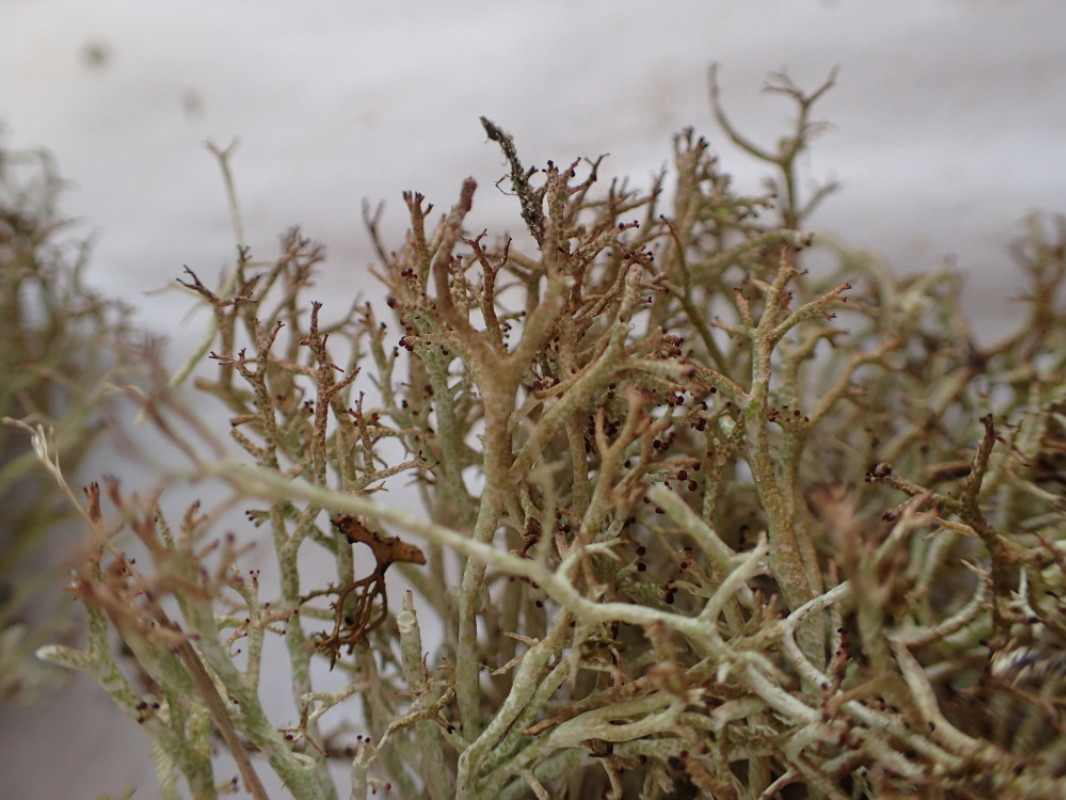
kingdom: Fungi
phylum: Ascomycota
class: Lecanoromycetes
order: Lecanorales
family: Cladoniaceae
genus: Cladonia
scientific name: Cladonia rangiformis
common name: spættet bægerlav
